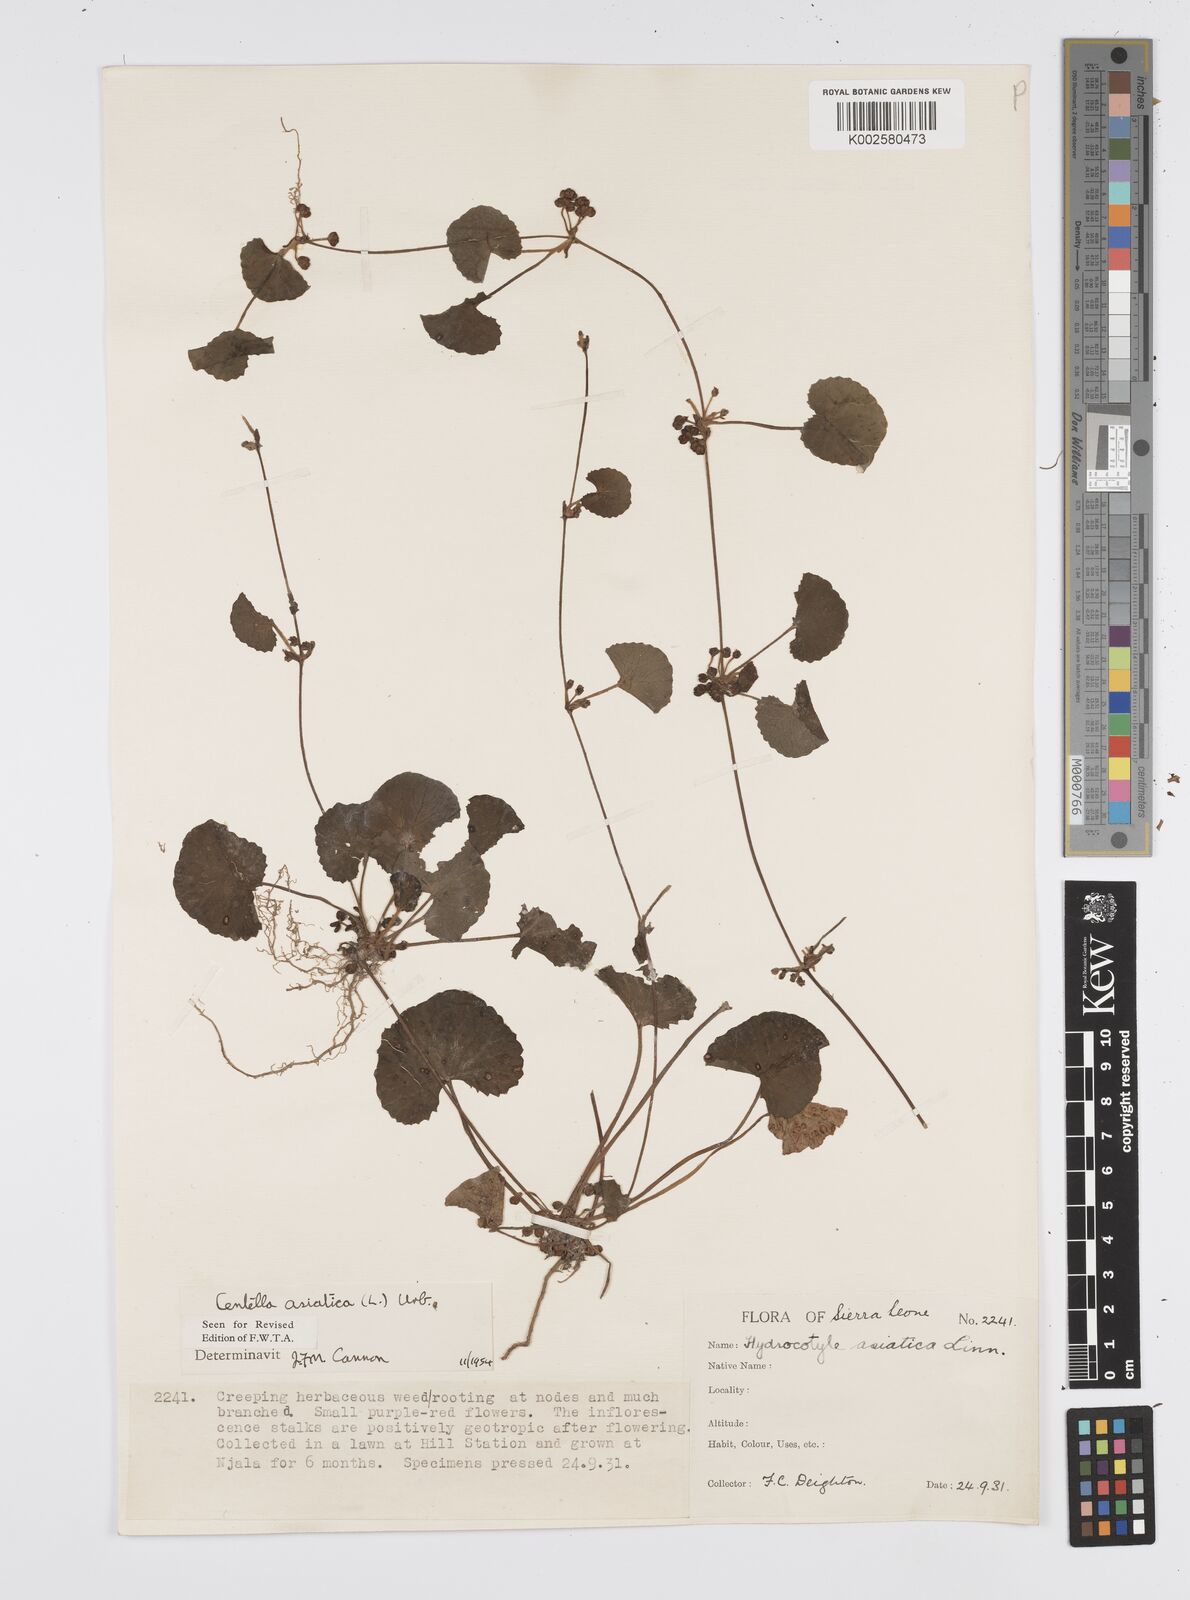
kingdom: Plantae
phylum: Tracheophyta
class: Magnoliopsida
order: Apiales
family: Apiaceae
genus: Centella
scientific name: Centella asiatica
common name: Spadeleaf
